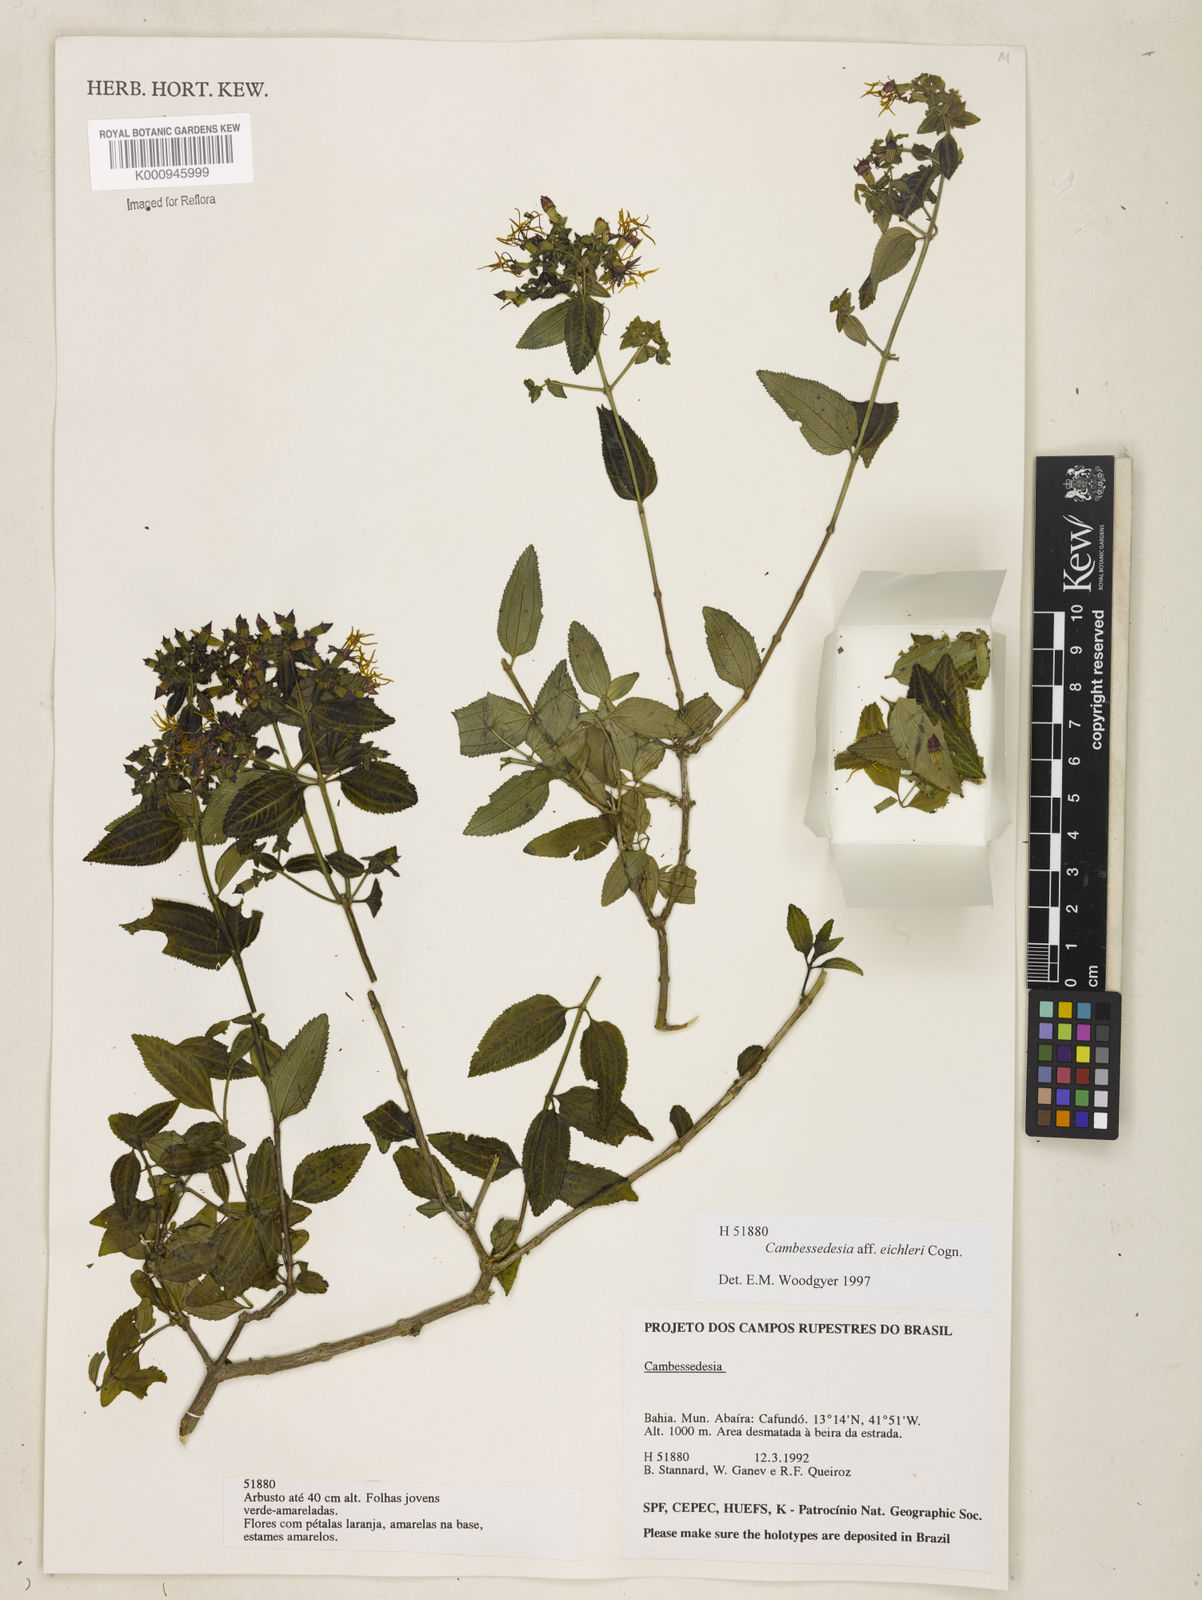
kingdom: Plantae
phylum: Tracheophyta
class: Magnoliopsida
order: Myrtales
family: Melastomataceae
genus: Cambessedesia
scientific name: Cambessedesia eichleri
